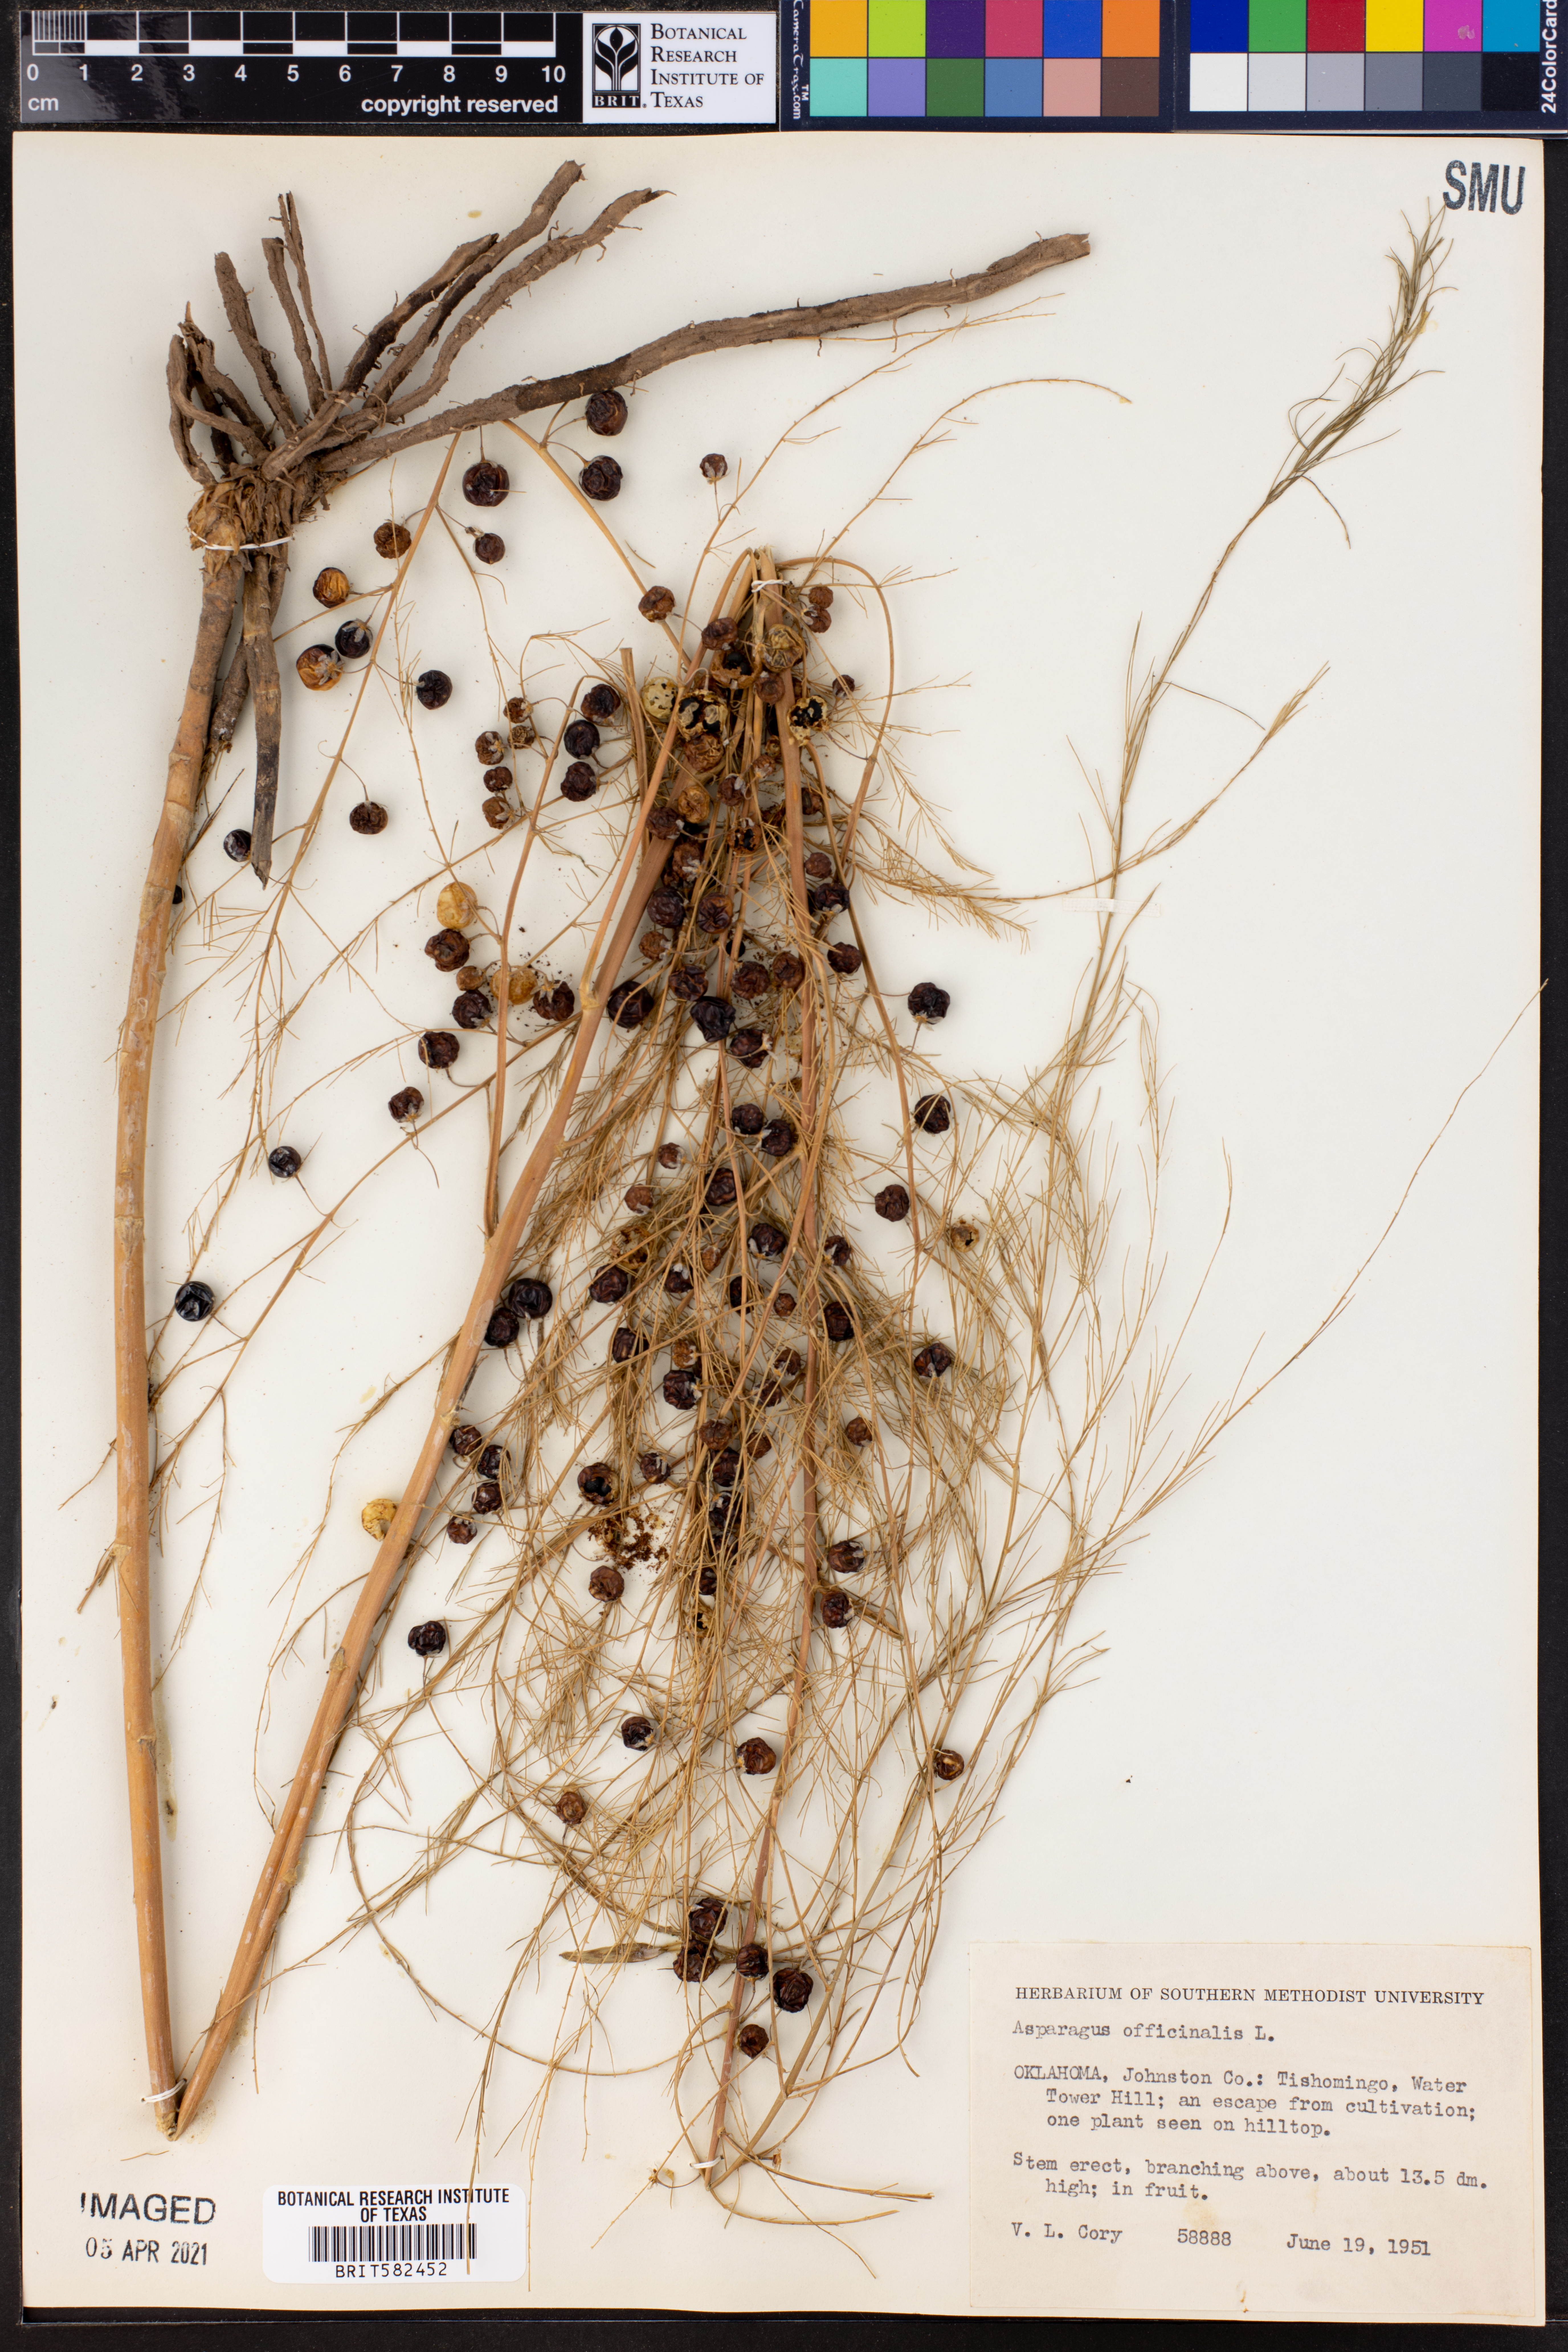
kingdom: Plantae
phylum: Tracheophyta
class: Liliopsida
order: Asparagales
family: Asparagaceae
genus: Asparagus
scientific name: Asparagus officinalis
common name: Garden asparagus
